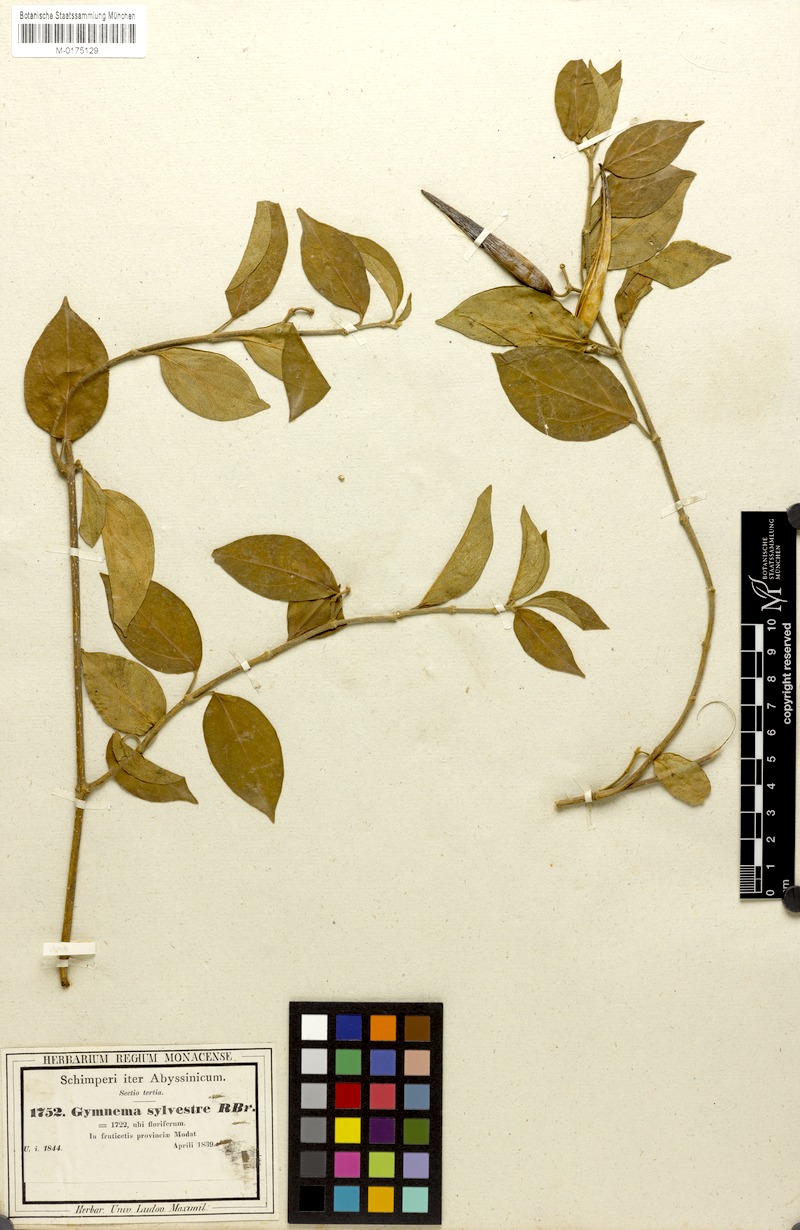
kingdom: Plantae
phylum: Tracheophyta
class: Magnoliopsida
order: Gentianales
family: Apocynaceae
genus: Gymnema
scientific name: Gymnema sylvestre
